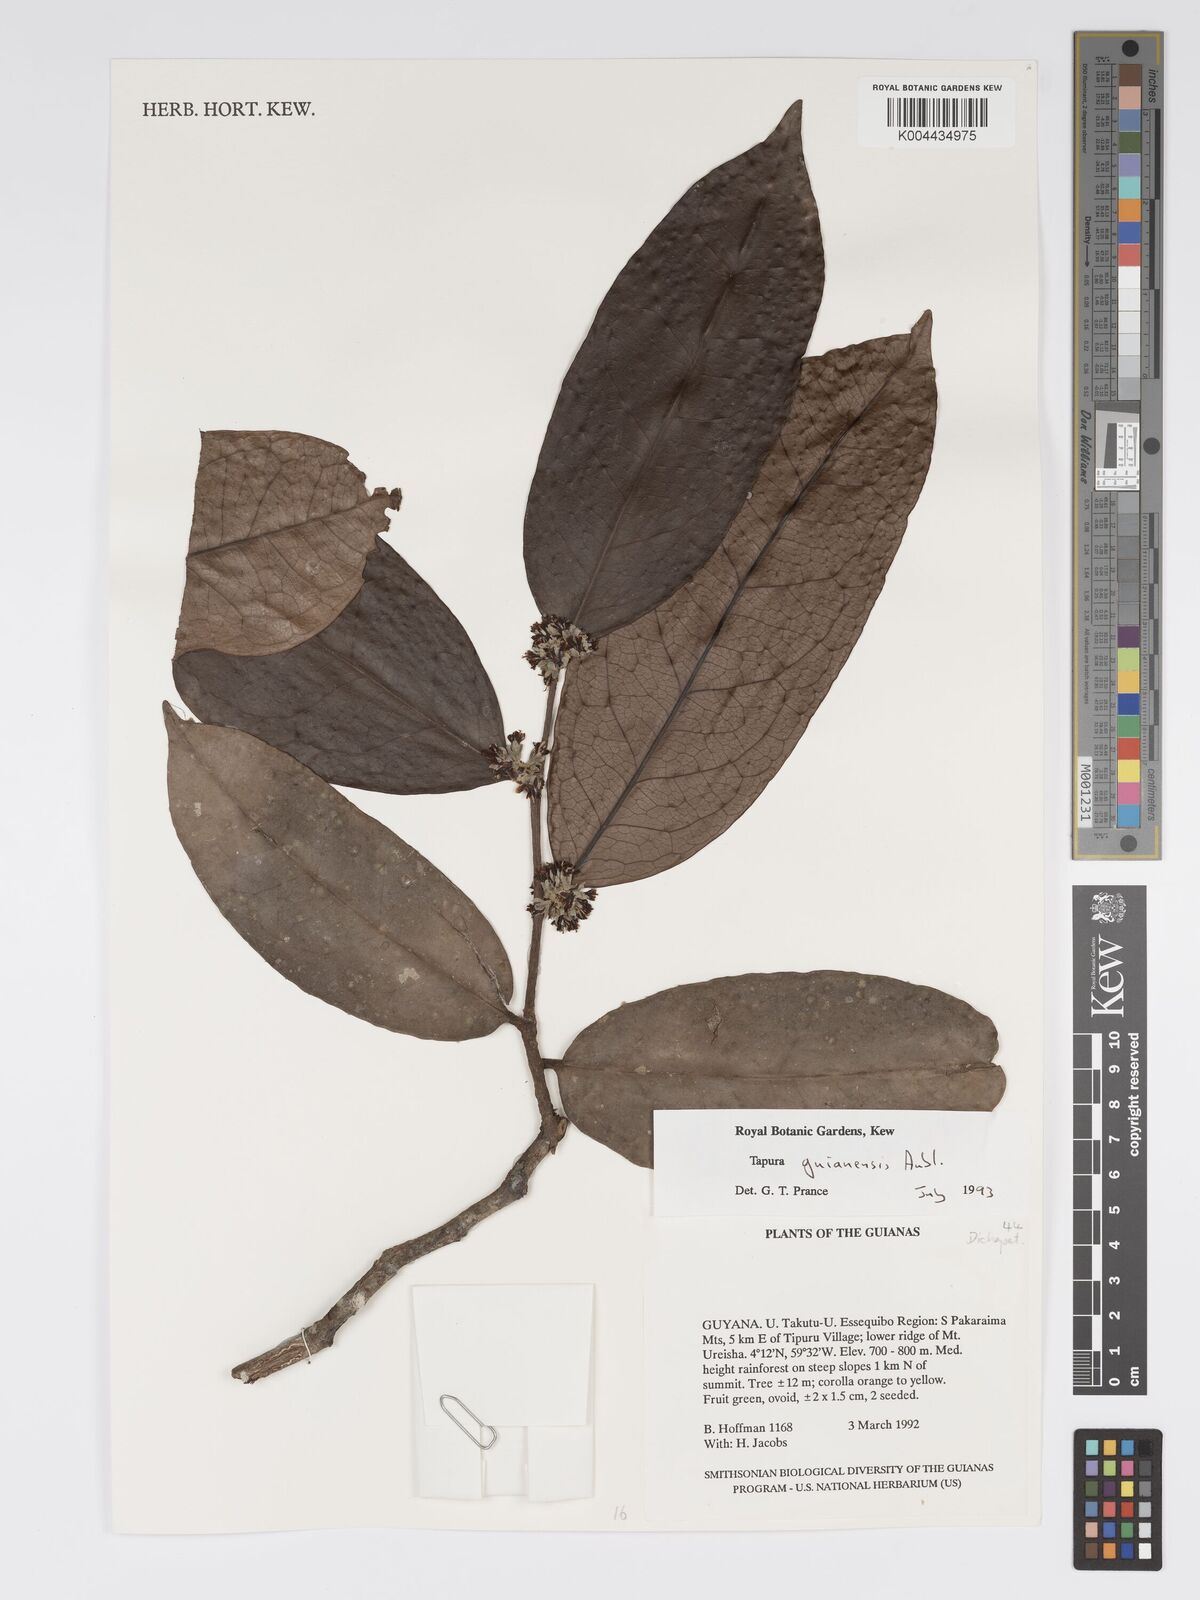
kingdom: Plantae
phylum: Tracheophyta
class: Magnoliopsida
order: Malpighiales
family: Dichapetalaceae
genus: Tapura
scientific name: Tapura guianensis
